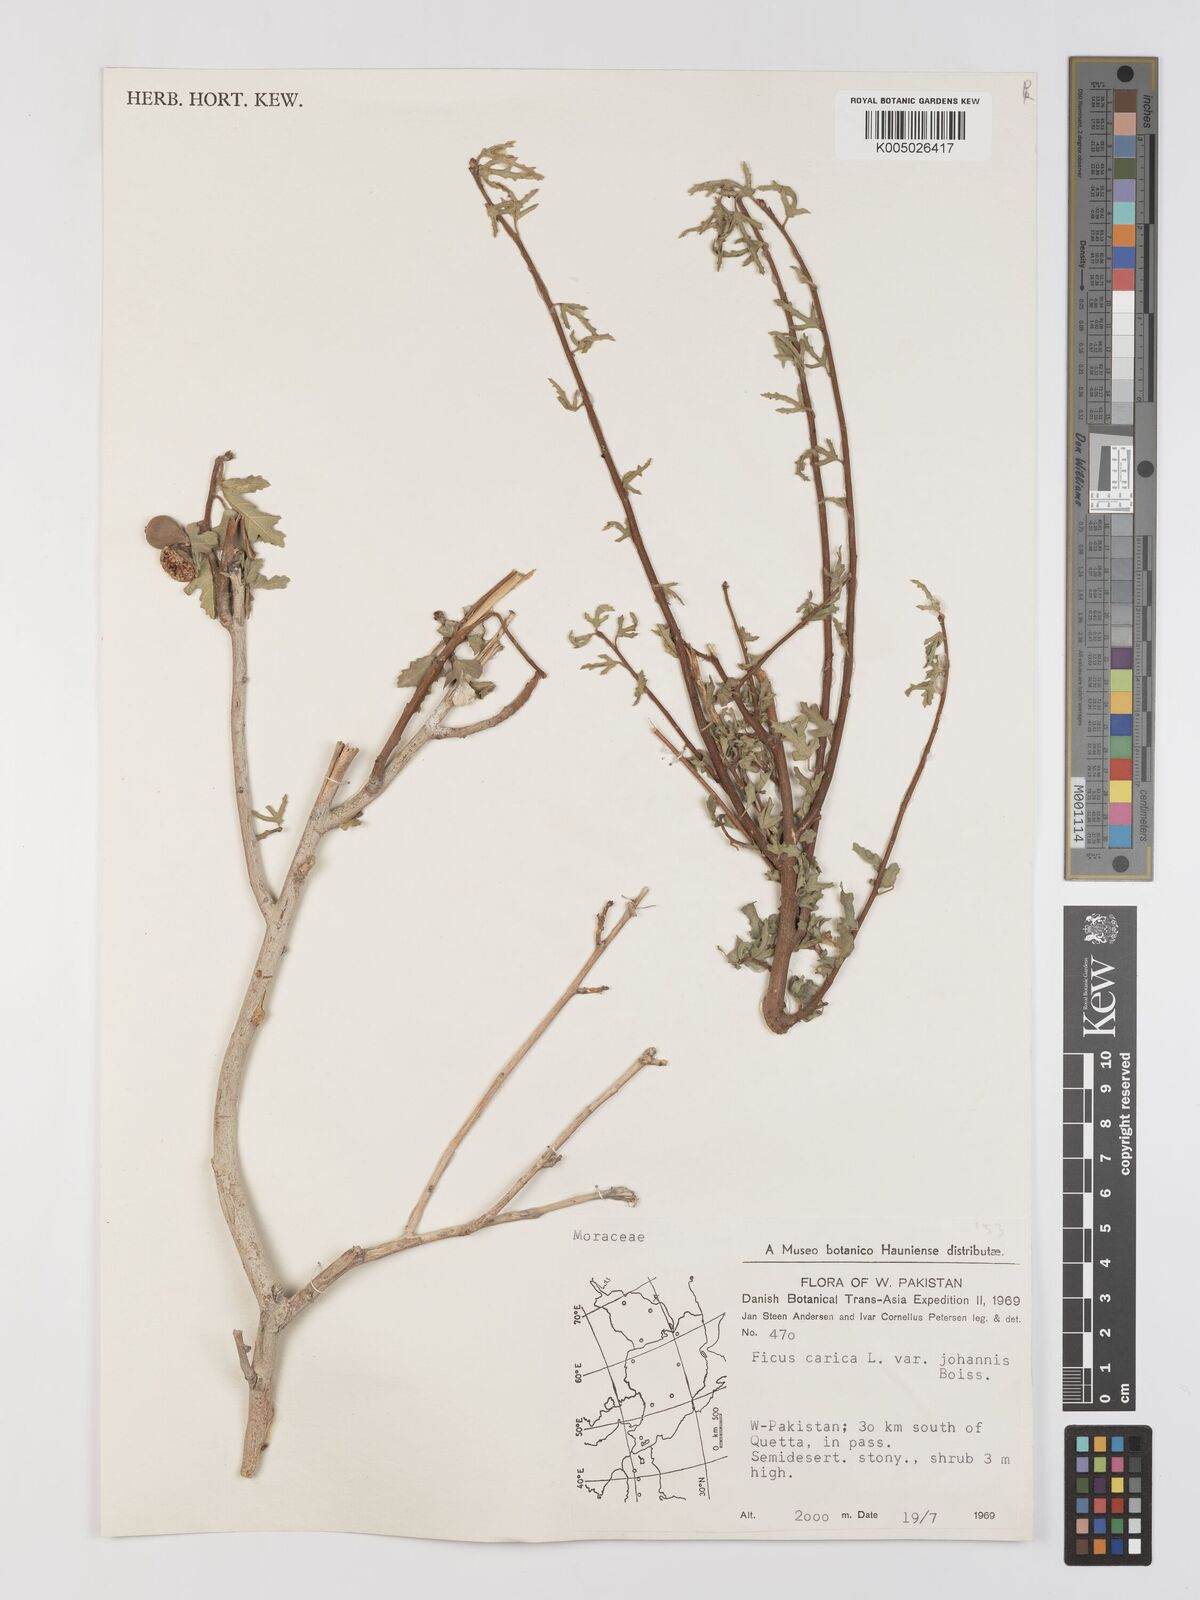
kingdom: Plantae
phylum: Tracheophyta
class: Magnoliopsida
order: Rosales
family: Moraceae
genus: Ficus
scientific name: Ficus carica
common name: Fig
